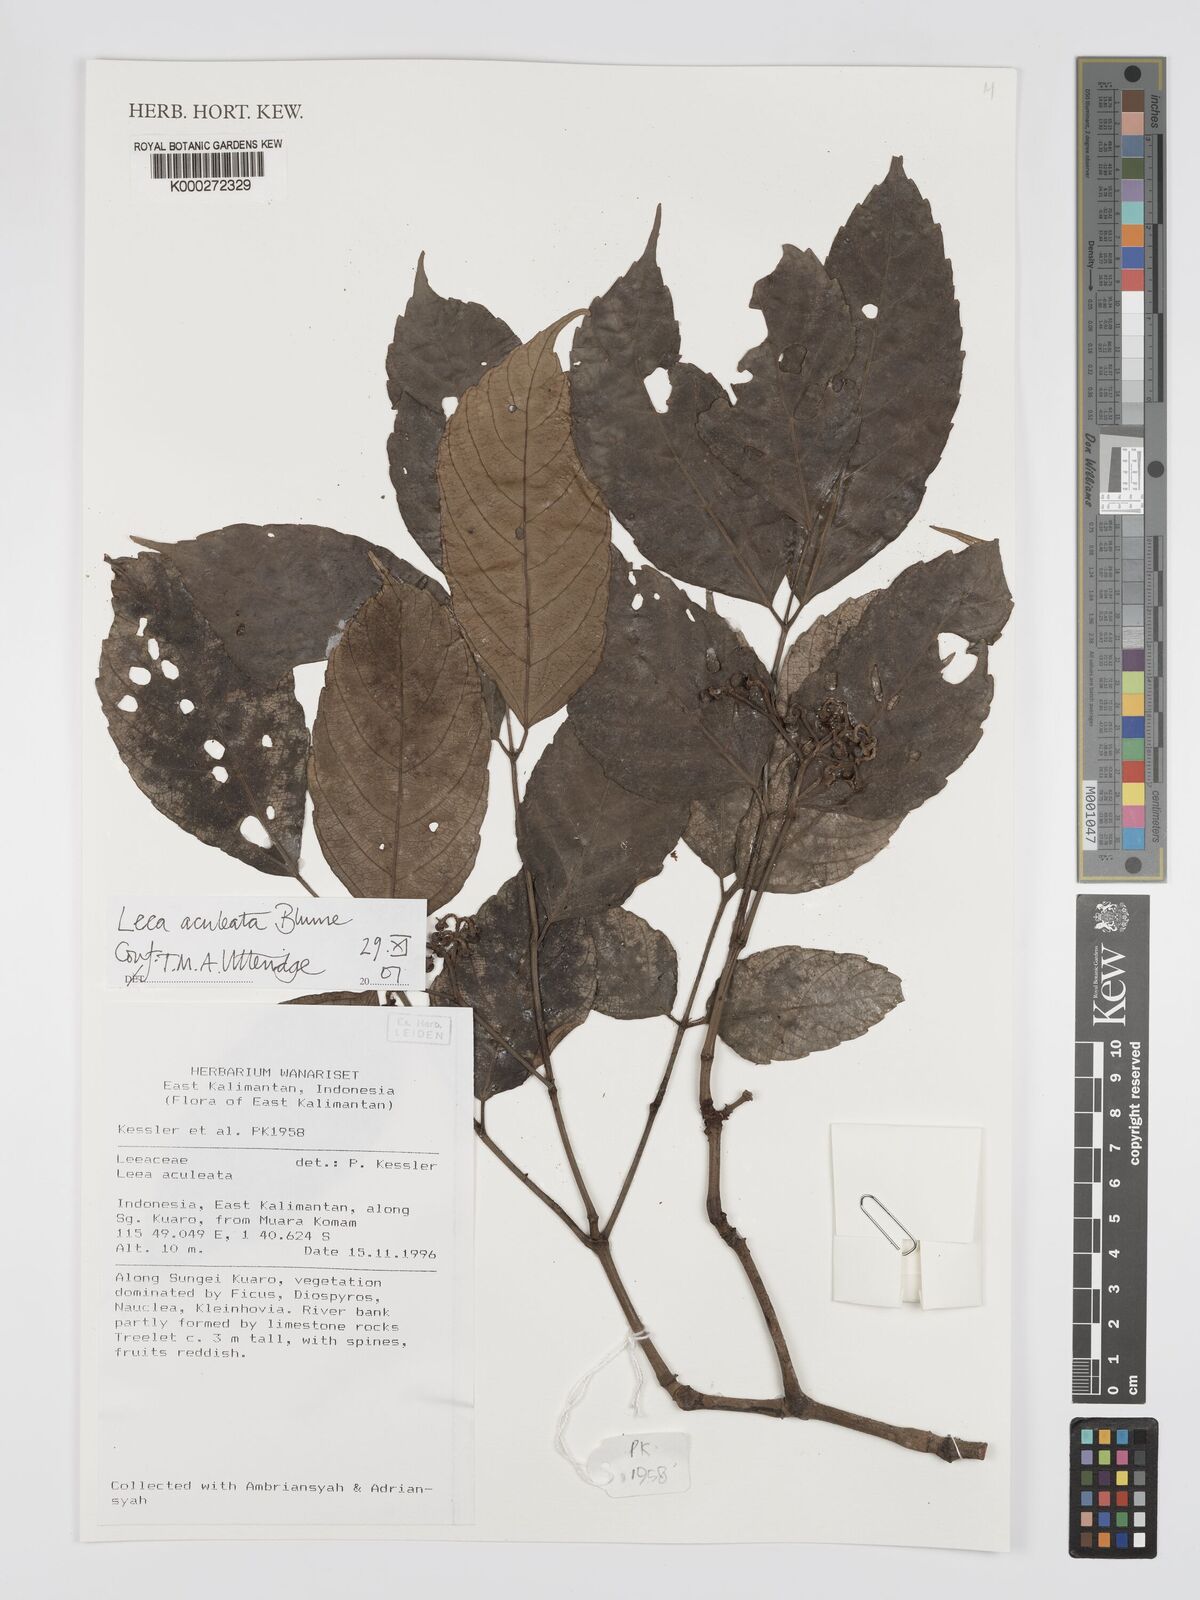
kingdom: Plantae
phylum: Tracheophyta
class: Magnoliopsida
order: Vitales
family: Vitaceae
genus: Leea
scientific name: Leea aculeata
